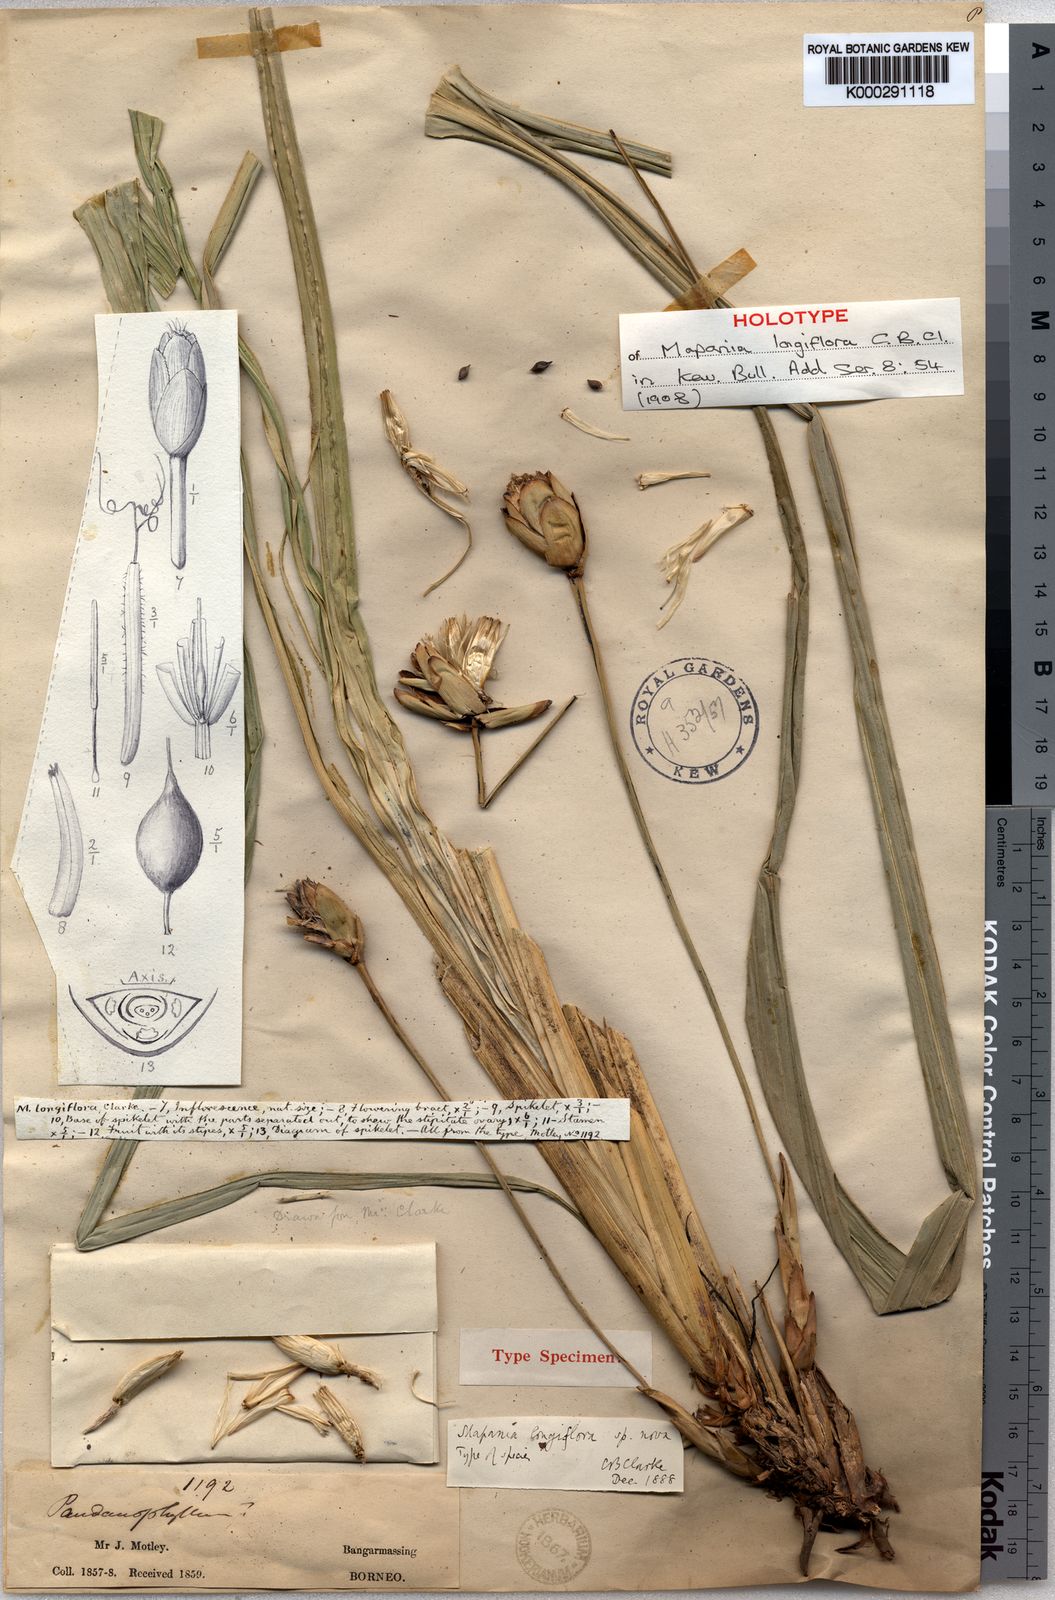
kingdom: Plantae
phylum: Tracheophyta
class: Liliopsida
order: Poales
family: Cyperaceae
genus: Mapania
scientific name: Mapania longiflora
